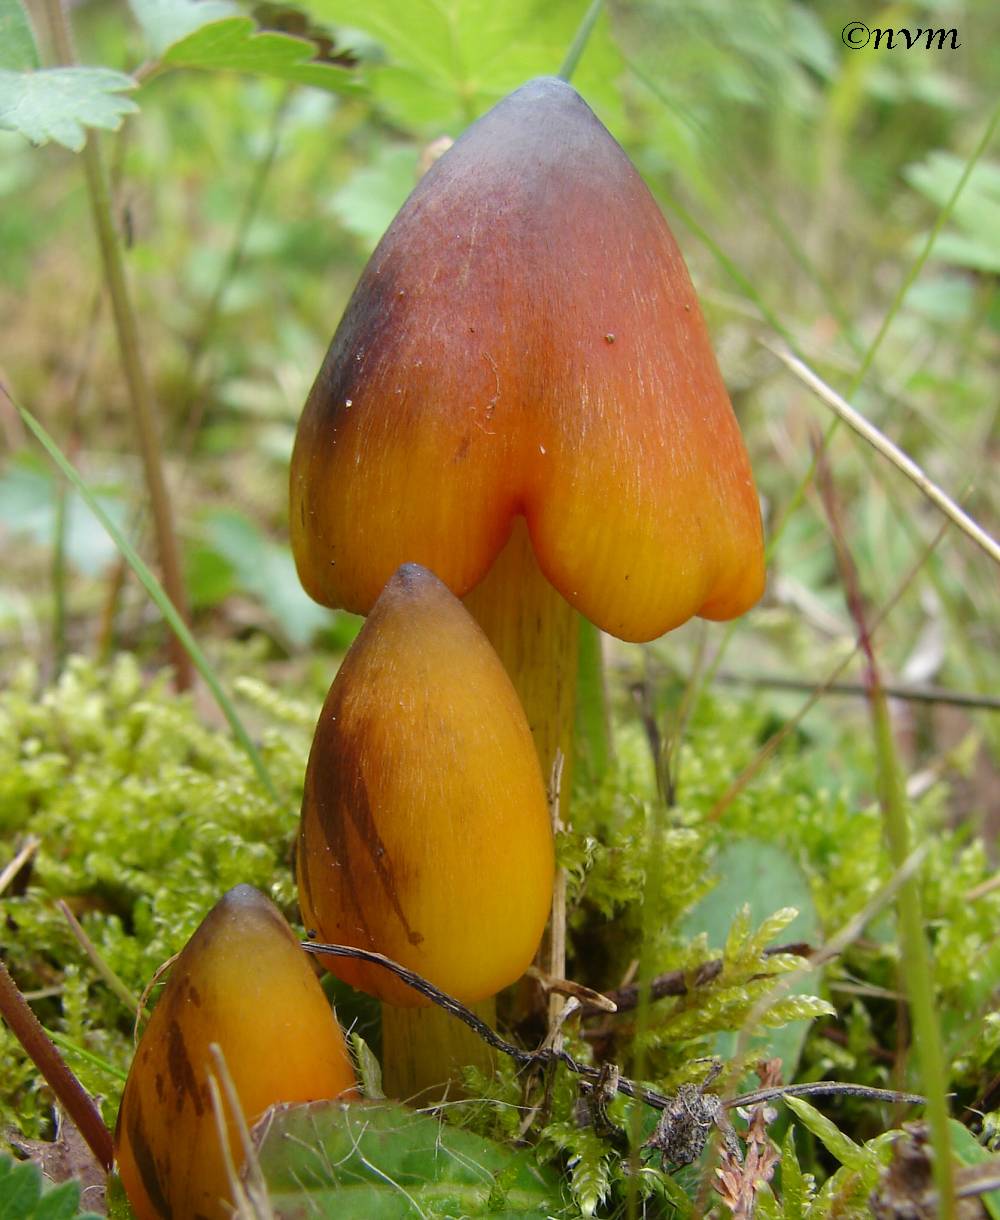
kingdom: Fungi
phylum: Basidiomycota
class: Agaricomycetes
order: Agaricales
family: Hygrophoraceae
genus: Hygrocybe
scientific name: Hygrocybe conica
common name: kegle-vokshat
